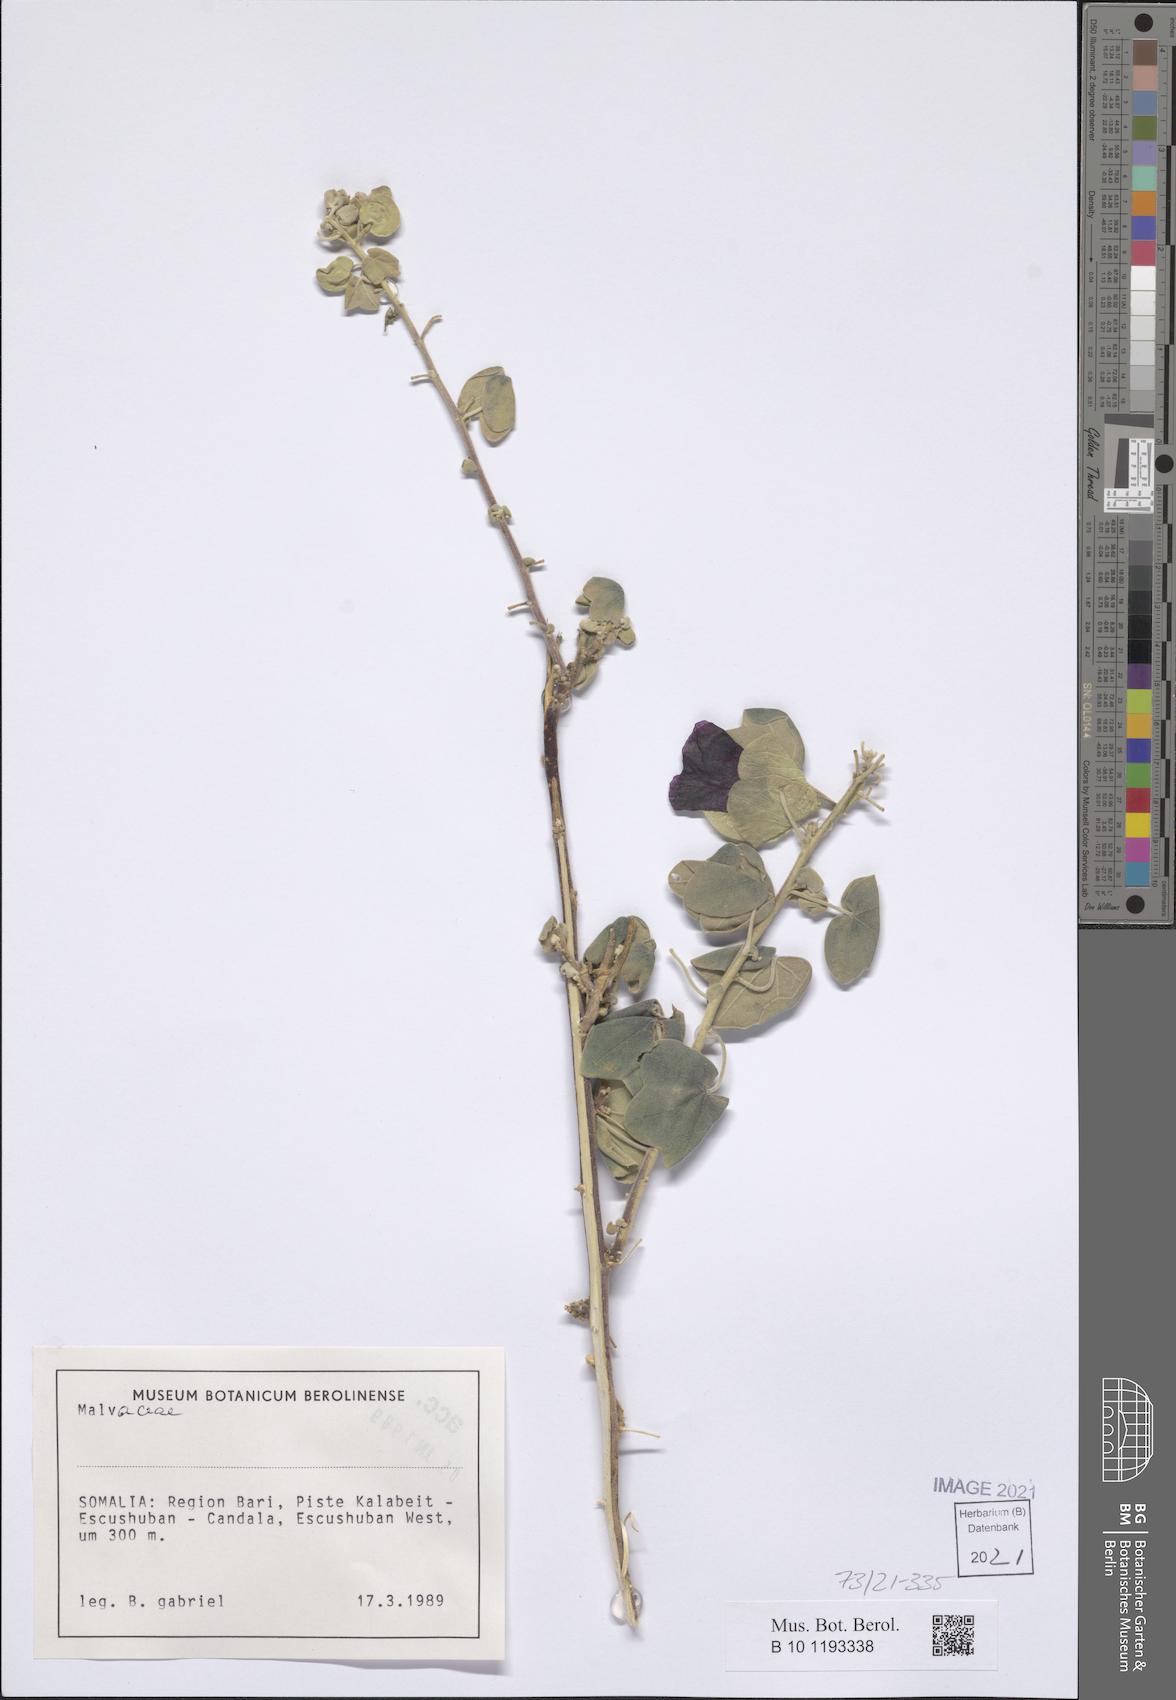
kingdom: Plantae
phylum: Tracheophyta
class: Magnoliopsida
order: Malvales
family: Malvaceae
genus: Senra
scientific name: Senra incana
